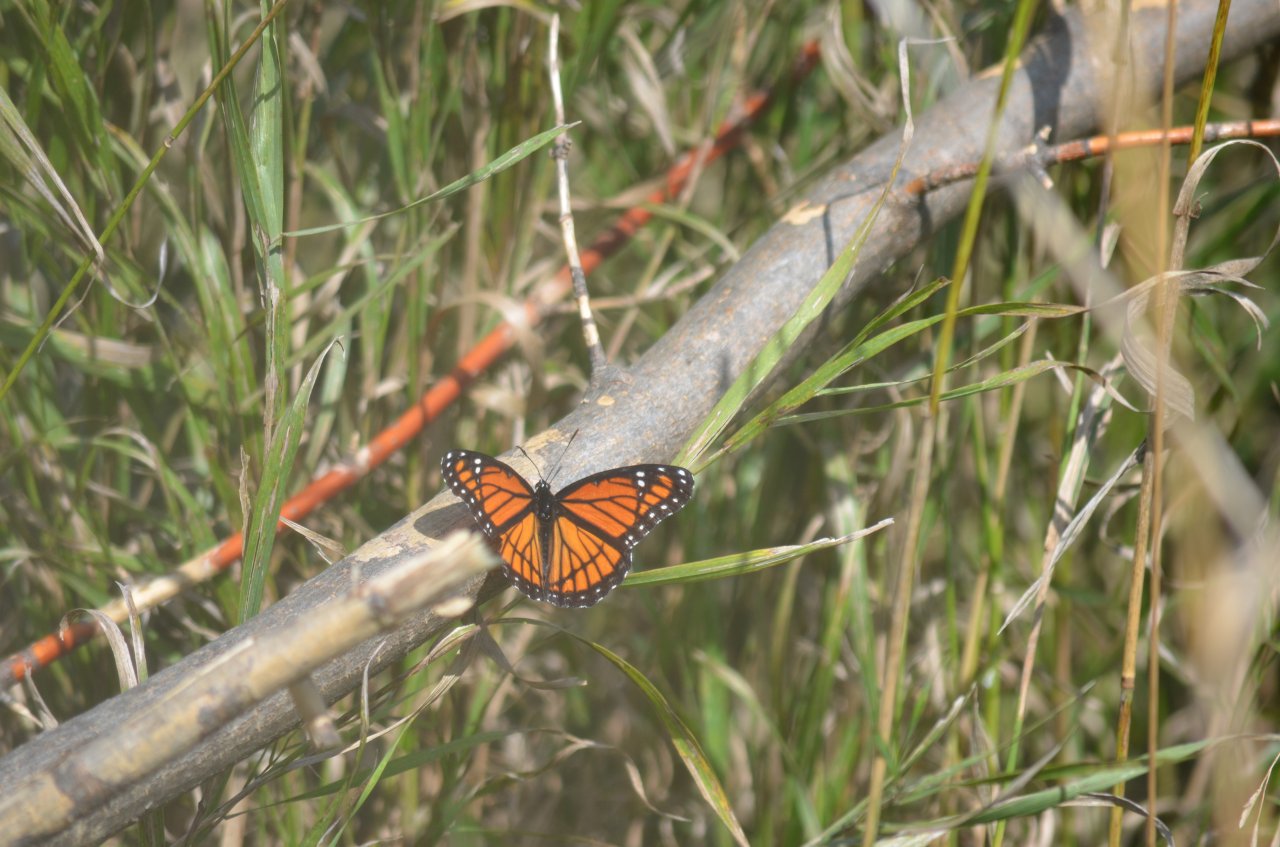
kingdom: Animalia
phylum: Arthropoda
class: Insecta
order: Lepidoptera
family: Nymphalidae
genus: Limenitis
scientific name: Limenitis archippus
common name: Viceroy
